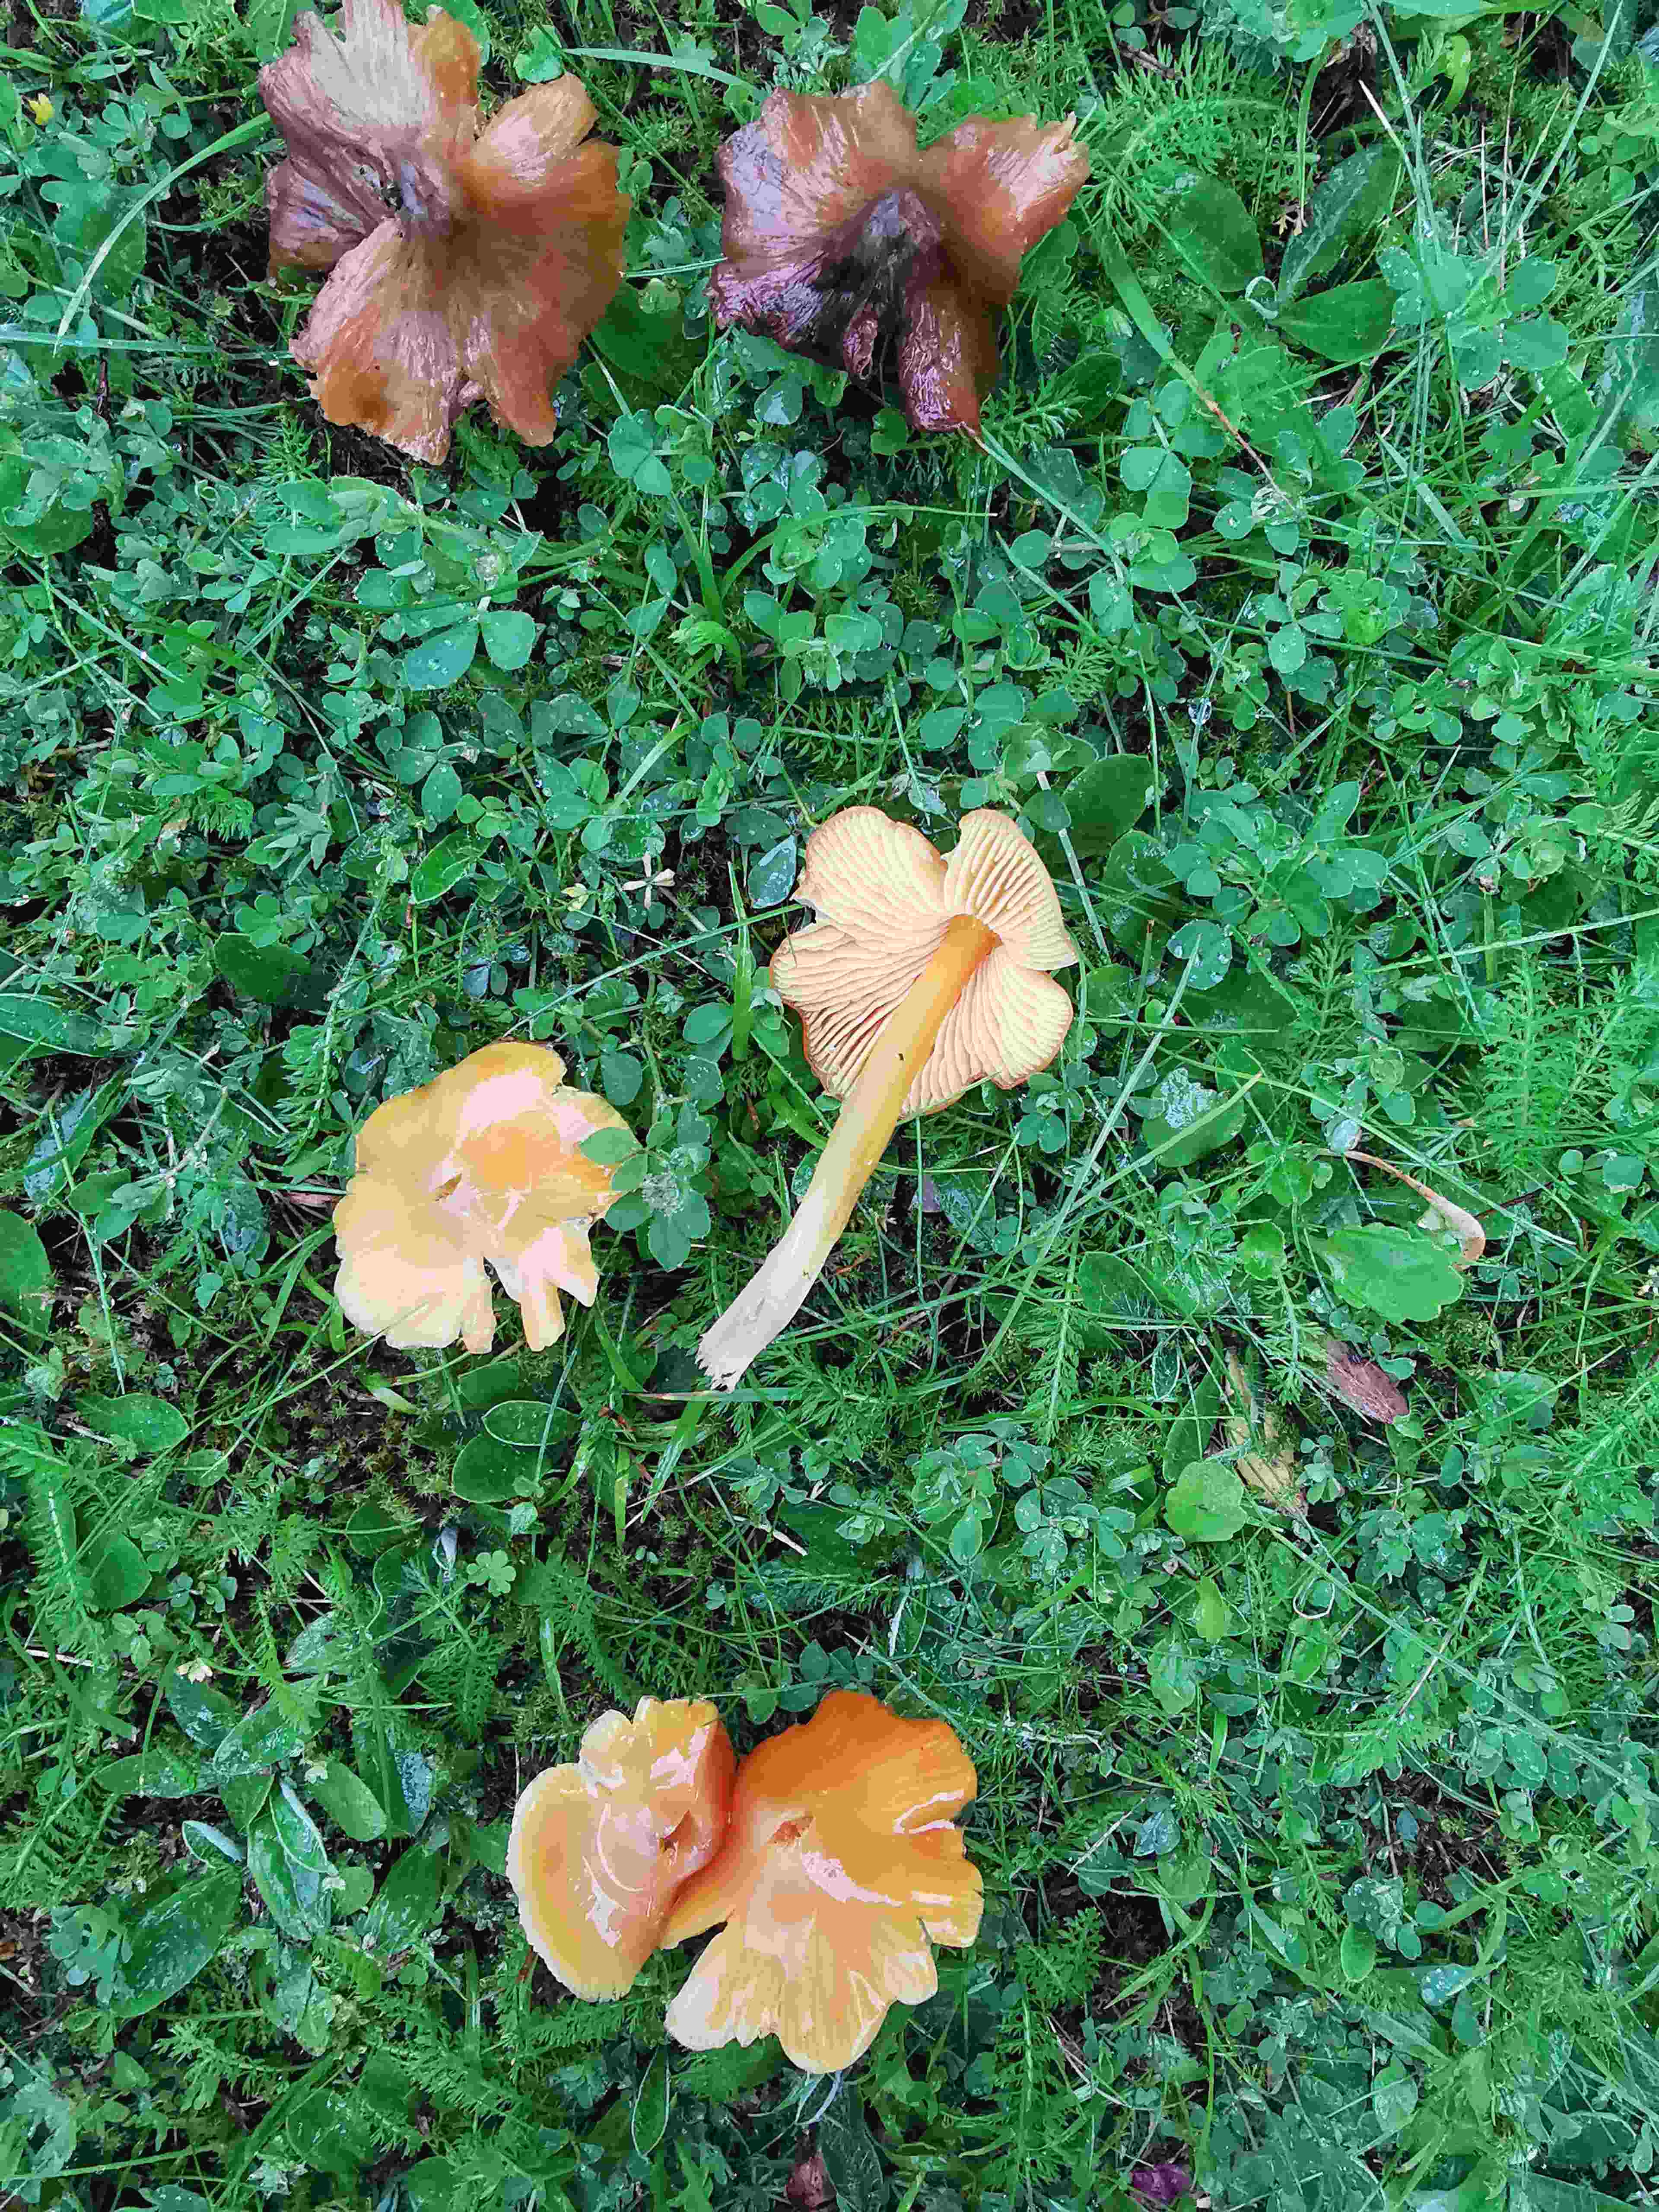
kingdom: Fungi
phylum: Basidiomycota
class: Agaricomycetes
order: Agaricales
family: Hygrophoraceae
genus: Hygrocybe
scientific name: Hygrocybe acutoconica
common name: Konrads vokshat
